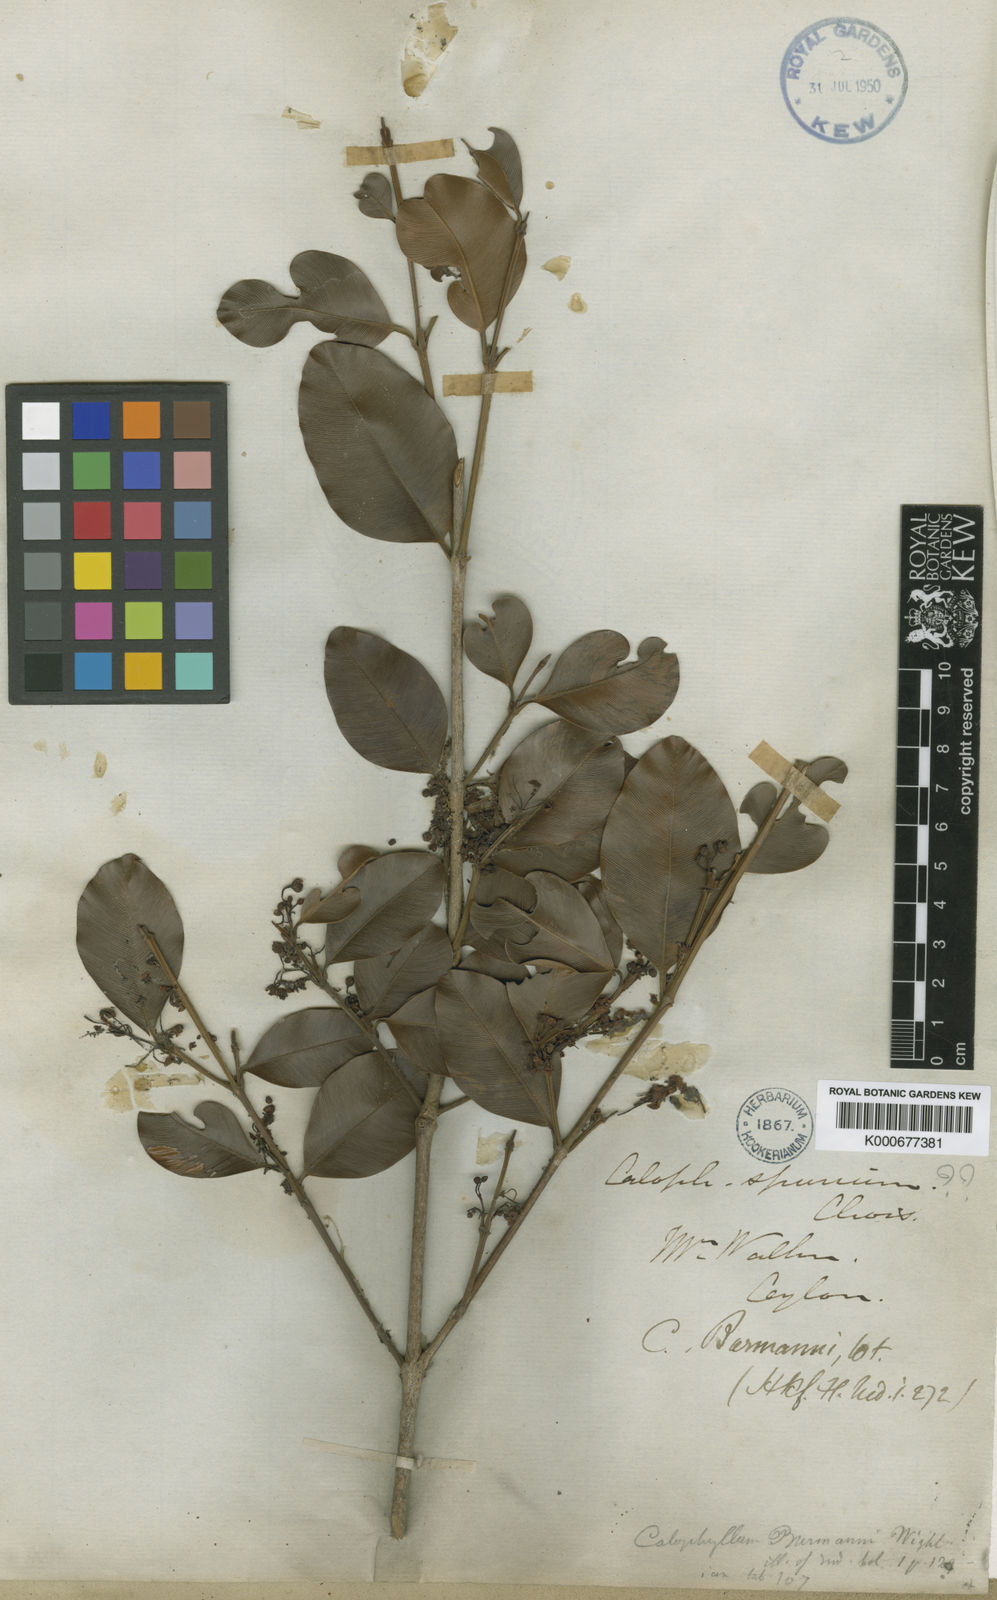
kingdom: Plantae
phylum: Tracheophyta
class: Magnoliopsida
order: Malpighiales
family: Calophyllaceae
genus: Calophyllum
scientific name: Calophyllum calaba
